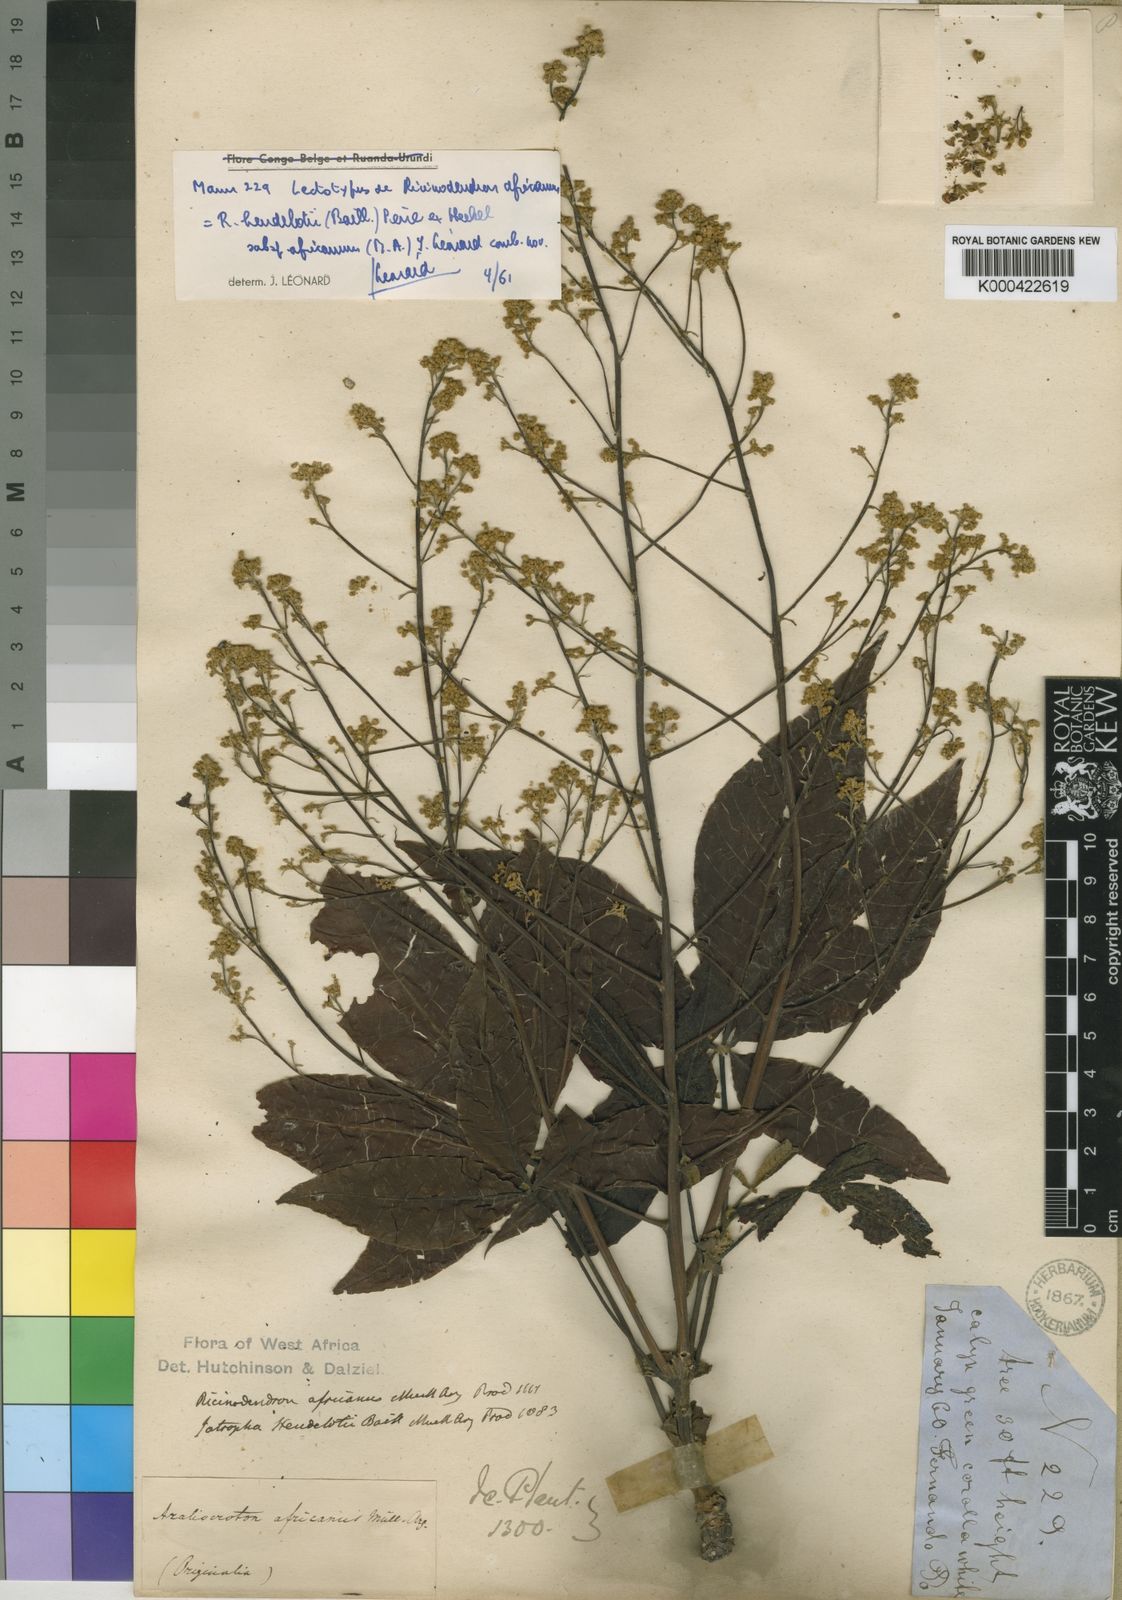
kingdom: Plantae
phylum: Tracheophyta
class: Magnoliopsida
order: Malpighiales
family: Euphorbiaceae
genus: Ricinodendron
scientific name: Ricinodendron heudelotii
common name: African nut-tree
